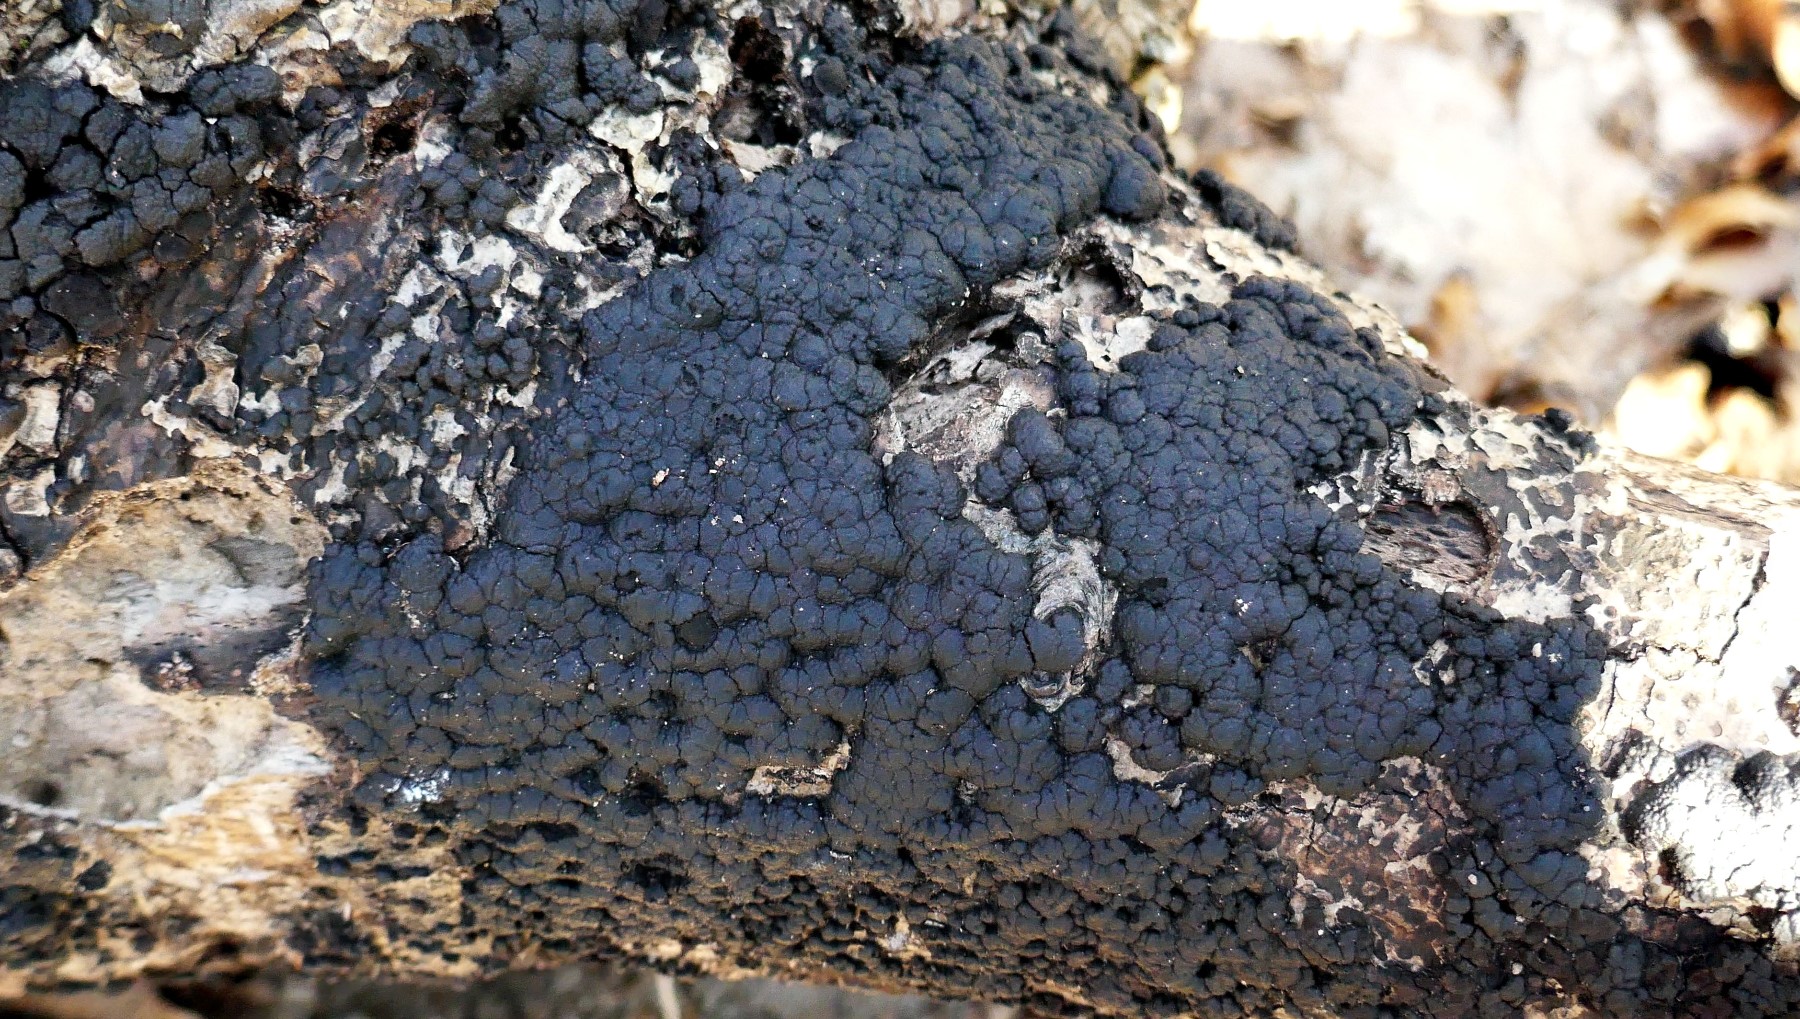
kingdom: Fungi
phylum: Ascomycota
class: Sordariomycetes
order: Xylariales
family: Hypoxylaceae
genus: Jackrogersella
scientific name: Jackrogersella cohaerens
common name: sammenflydende kulbær
